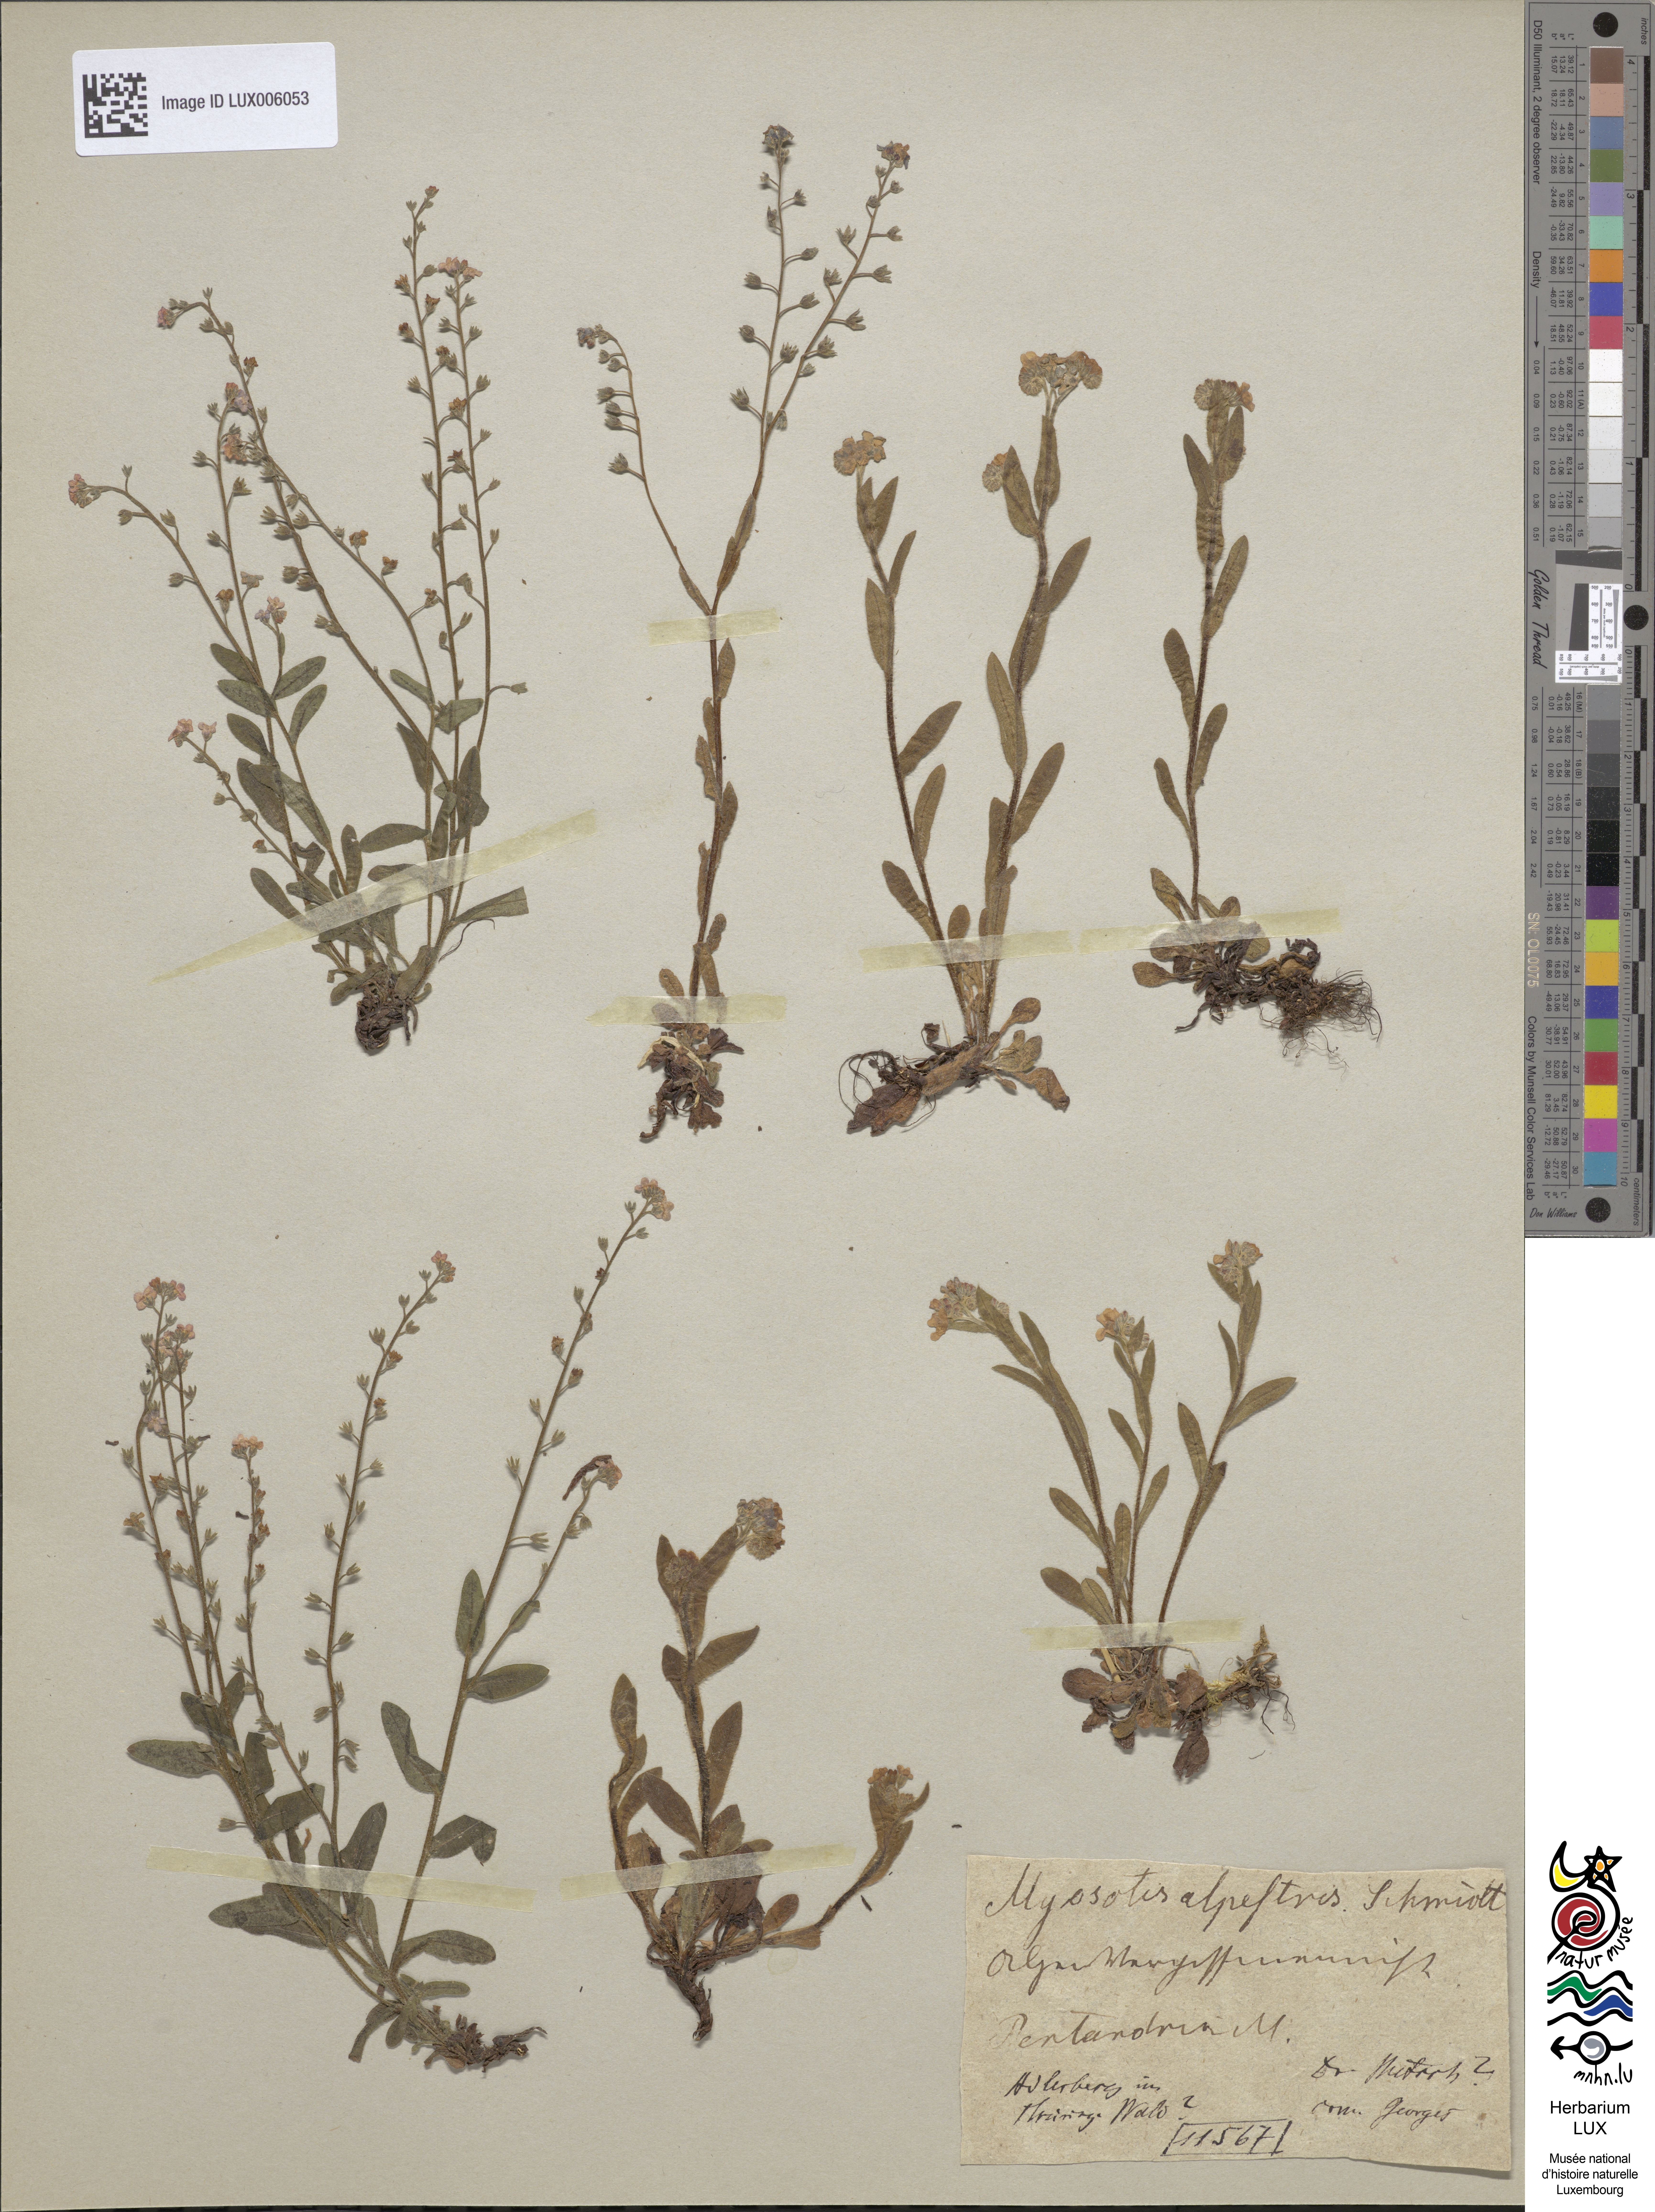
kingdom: Plantae
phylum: Tracheophyta
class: Magnoliopsida
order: Boraginales
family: Boraginaceae
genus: Myosotis
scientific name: Myosotis alpestris
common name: Alpine forget-me-not
